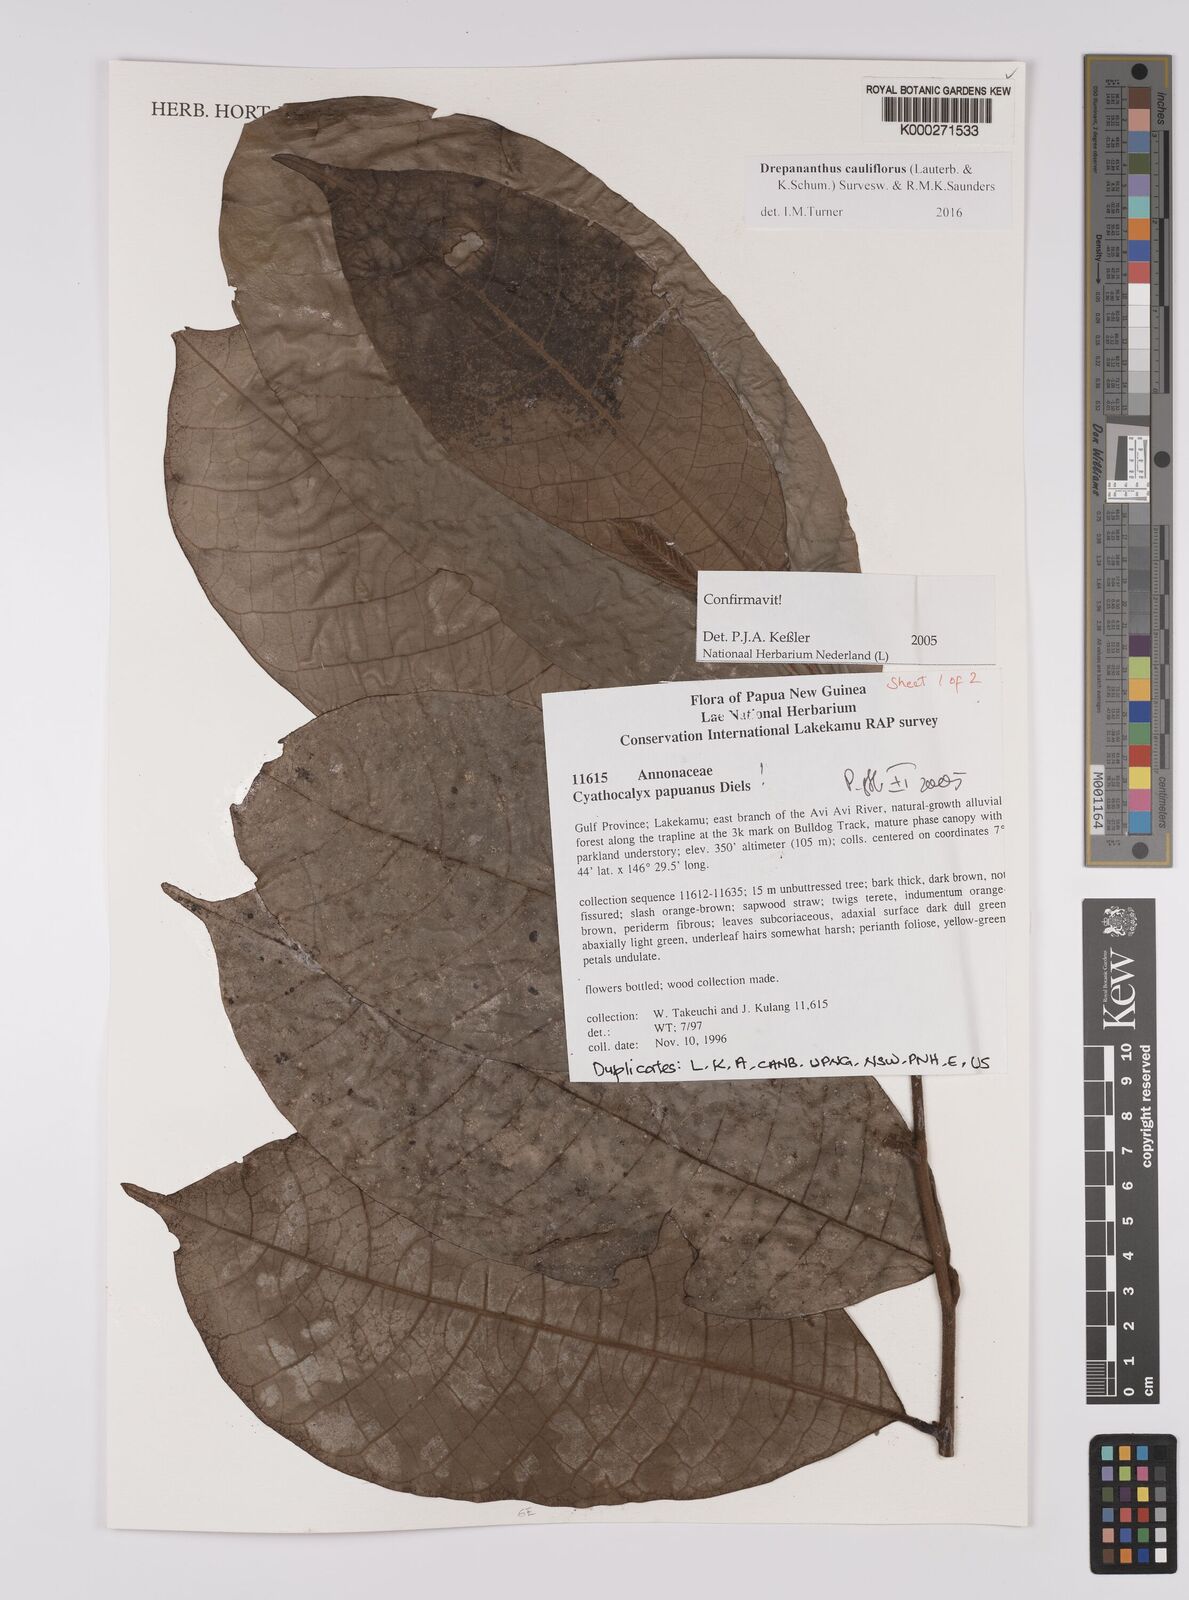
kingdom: Plantae
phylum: Tracheophyta
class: Magnoliopsida
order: Magnoliales
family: Annonaceae
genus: Drepananthus
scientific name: Drepananthus cauliflorus
